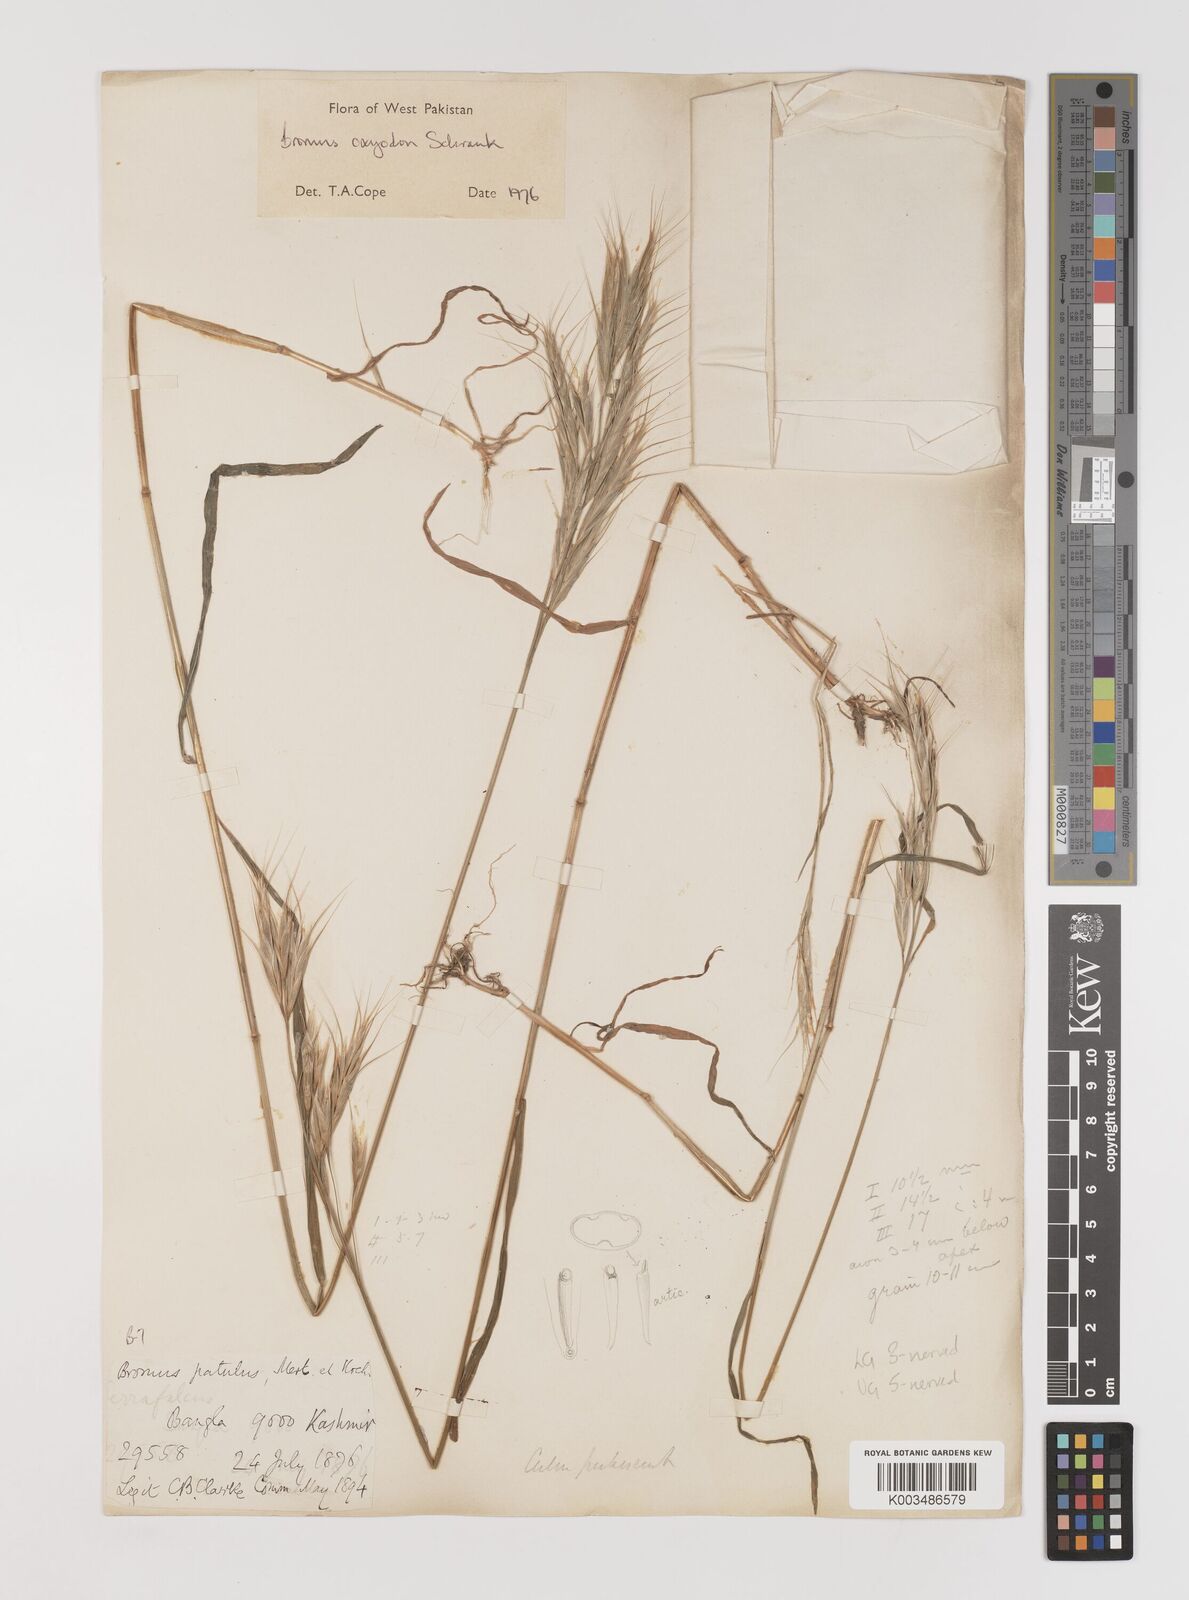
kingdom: Plantae
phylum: Tracheophyta
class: Liliopsida
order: Poales
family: Poaceae
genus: Bromus
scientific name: Bromus oxyodon
